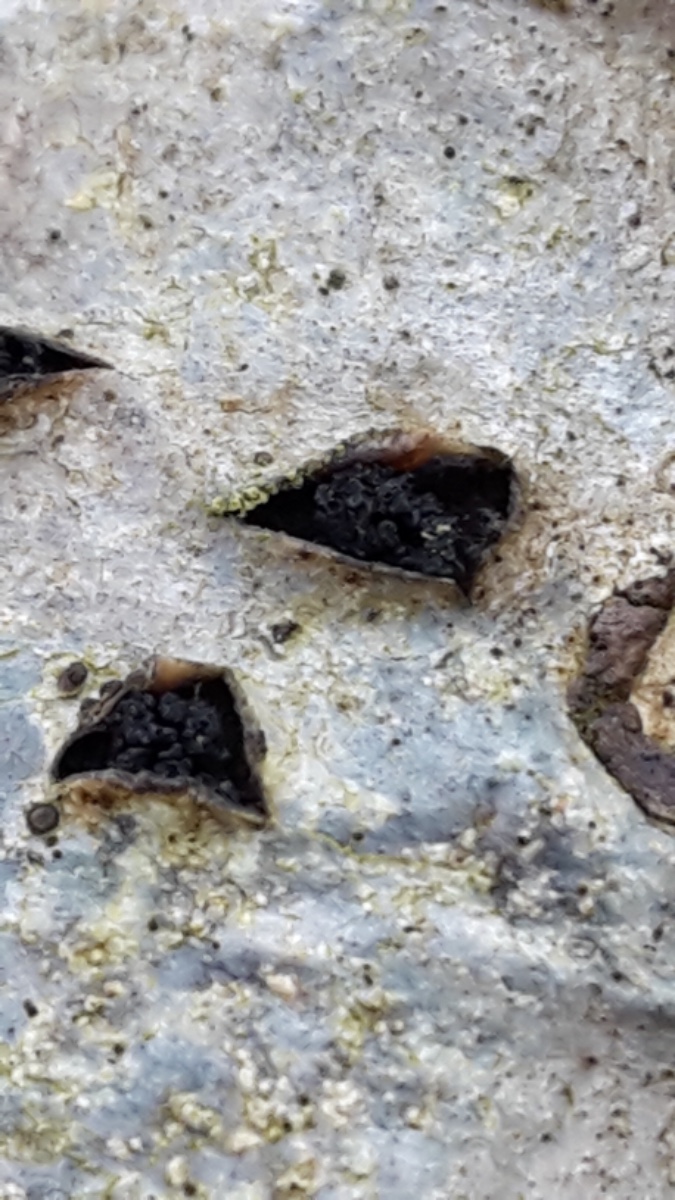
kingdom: Fungi
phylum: Ascomycota
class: Sordariomycetes
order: Xylariales
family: Diatrypaceae
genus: Eutypella
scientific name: Eutypella sorbi
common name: rønne-kulskorpe
